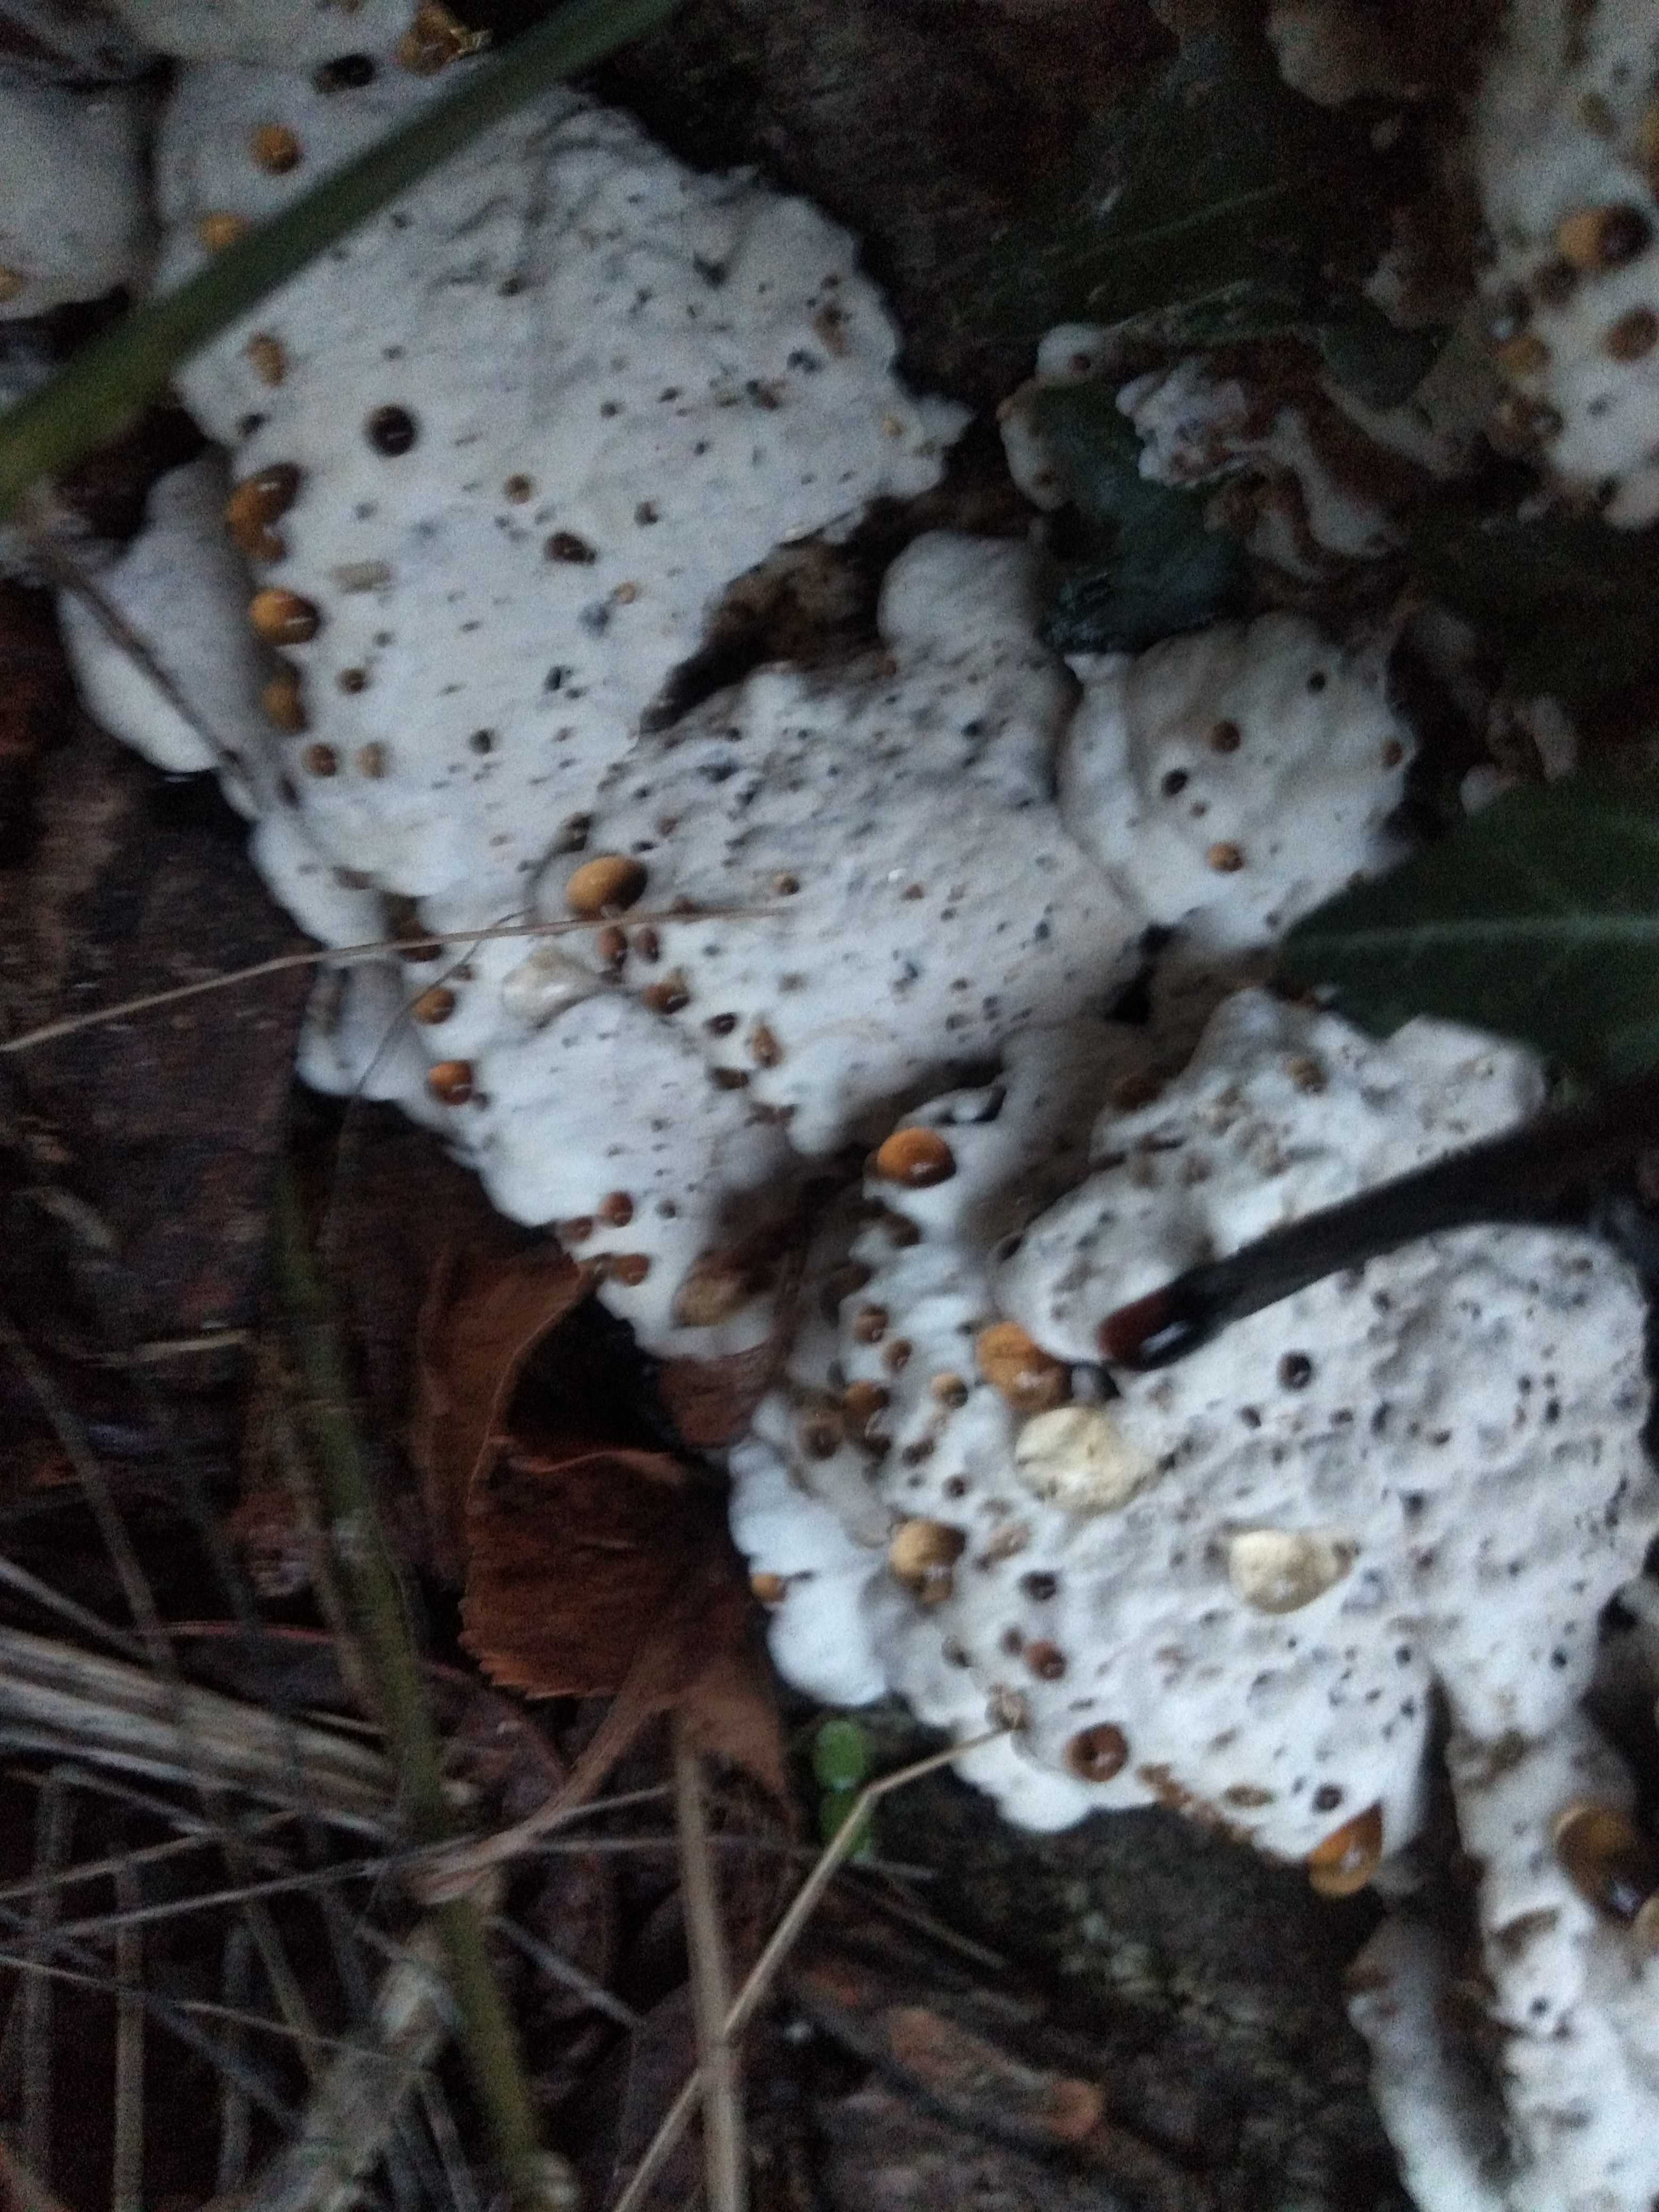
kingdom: Fungi
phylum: Basidiomycota
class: Agaricomycetes
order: Polyporales
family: Phanerochaetaceae
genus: Bjerkandera
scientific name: Bjerkandera fumosa
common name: grågul sodporesvamp
